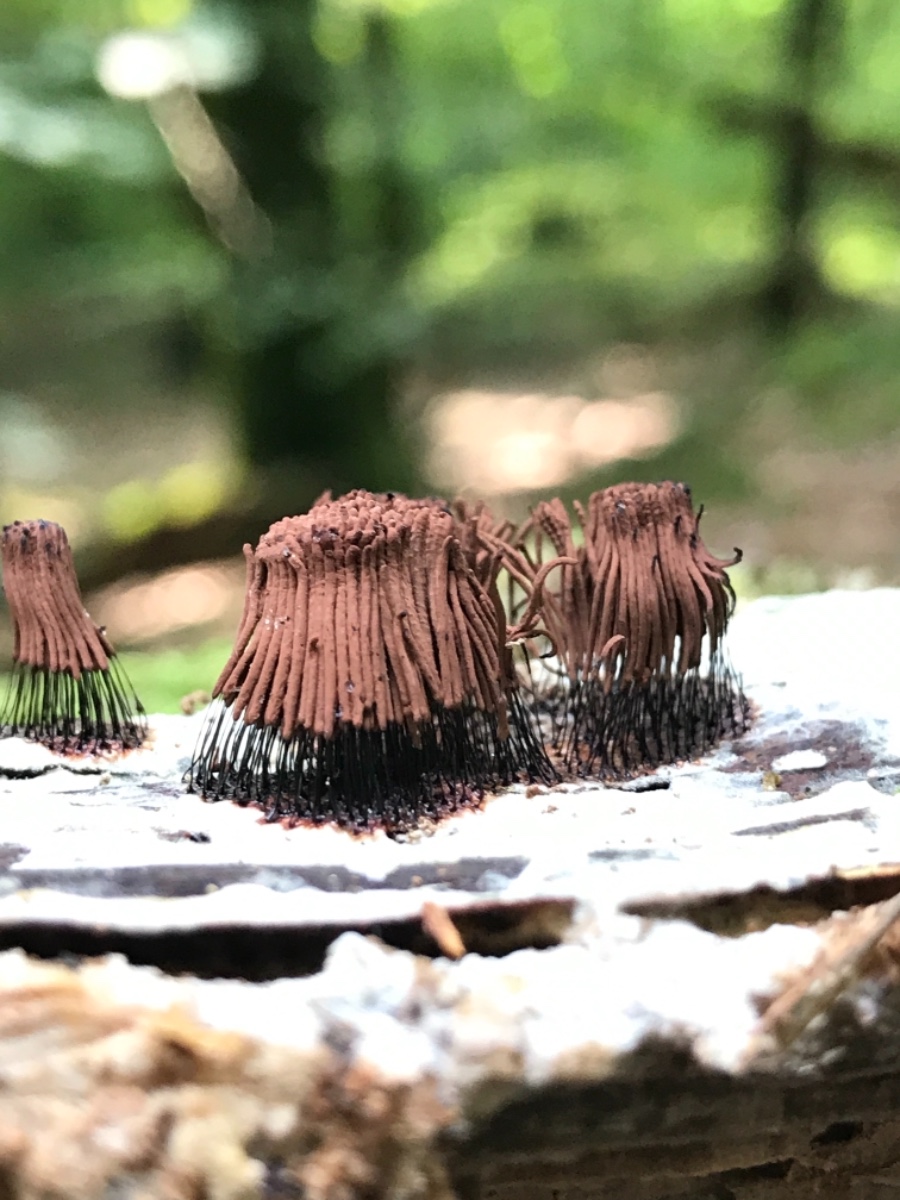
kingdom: Protozoa
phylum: Mycetozoa
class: Myxomycetes
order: Stemonitidales
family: Stemonitidaceae
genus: Stemonitis
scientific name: Stemonitis
